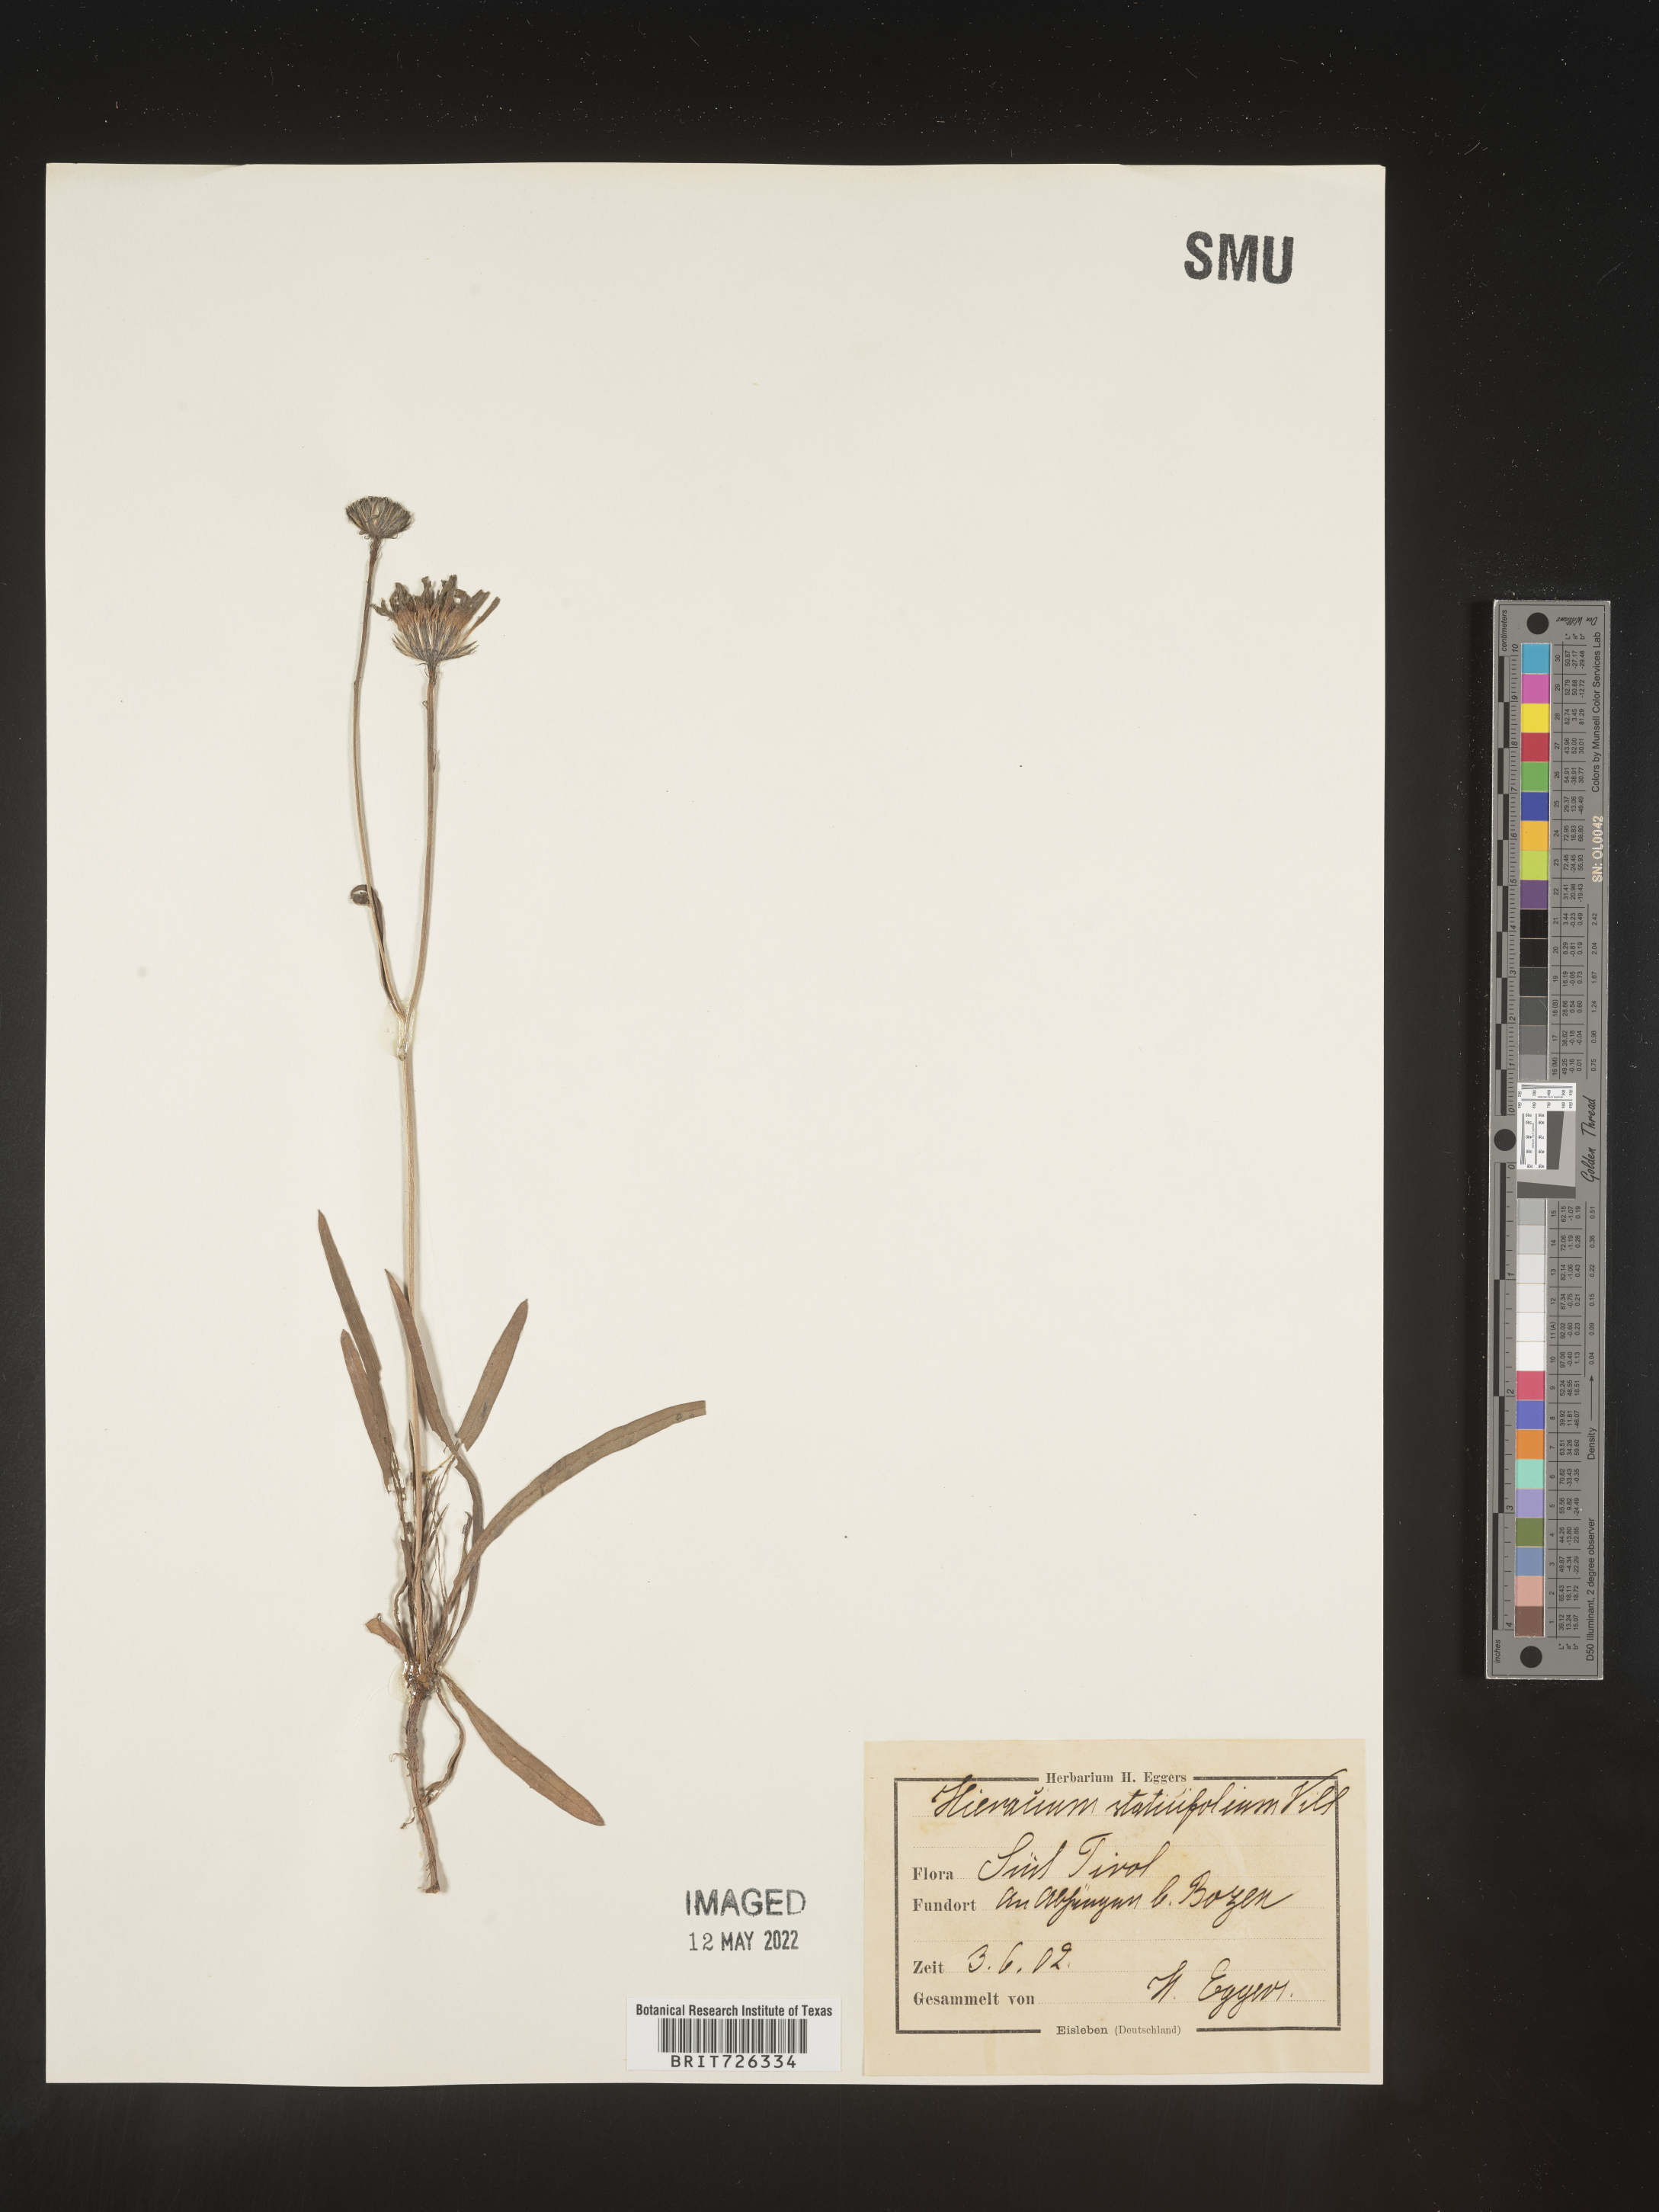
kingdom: Plantae
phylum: Tracheophyta
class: Magnoliopsida
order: Asterales
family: Asteraceae
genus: Hieracium
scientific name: Hieracium
